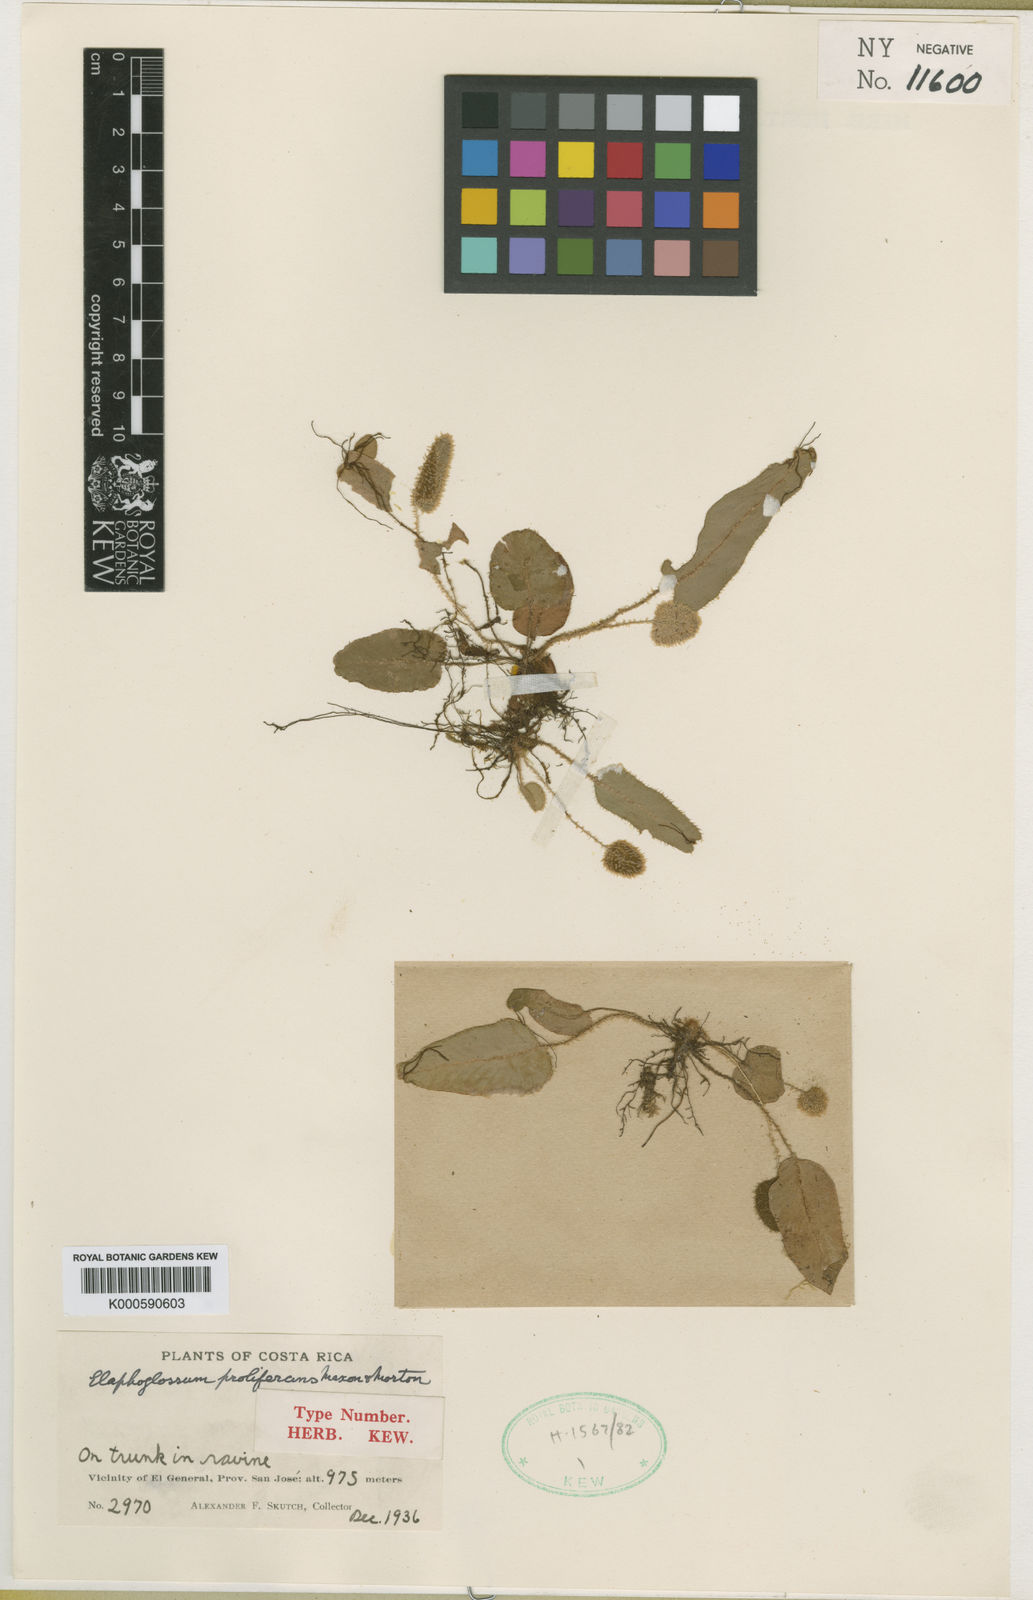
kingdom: Plantae
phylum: Tracheophyta
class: Polypodiopsida
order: Polypodiales
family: Dryopteridaceae
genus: Elaphoglossum
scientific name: Elaphoglossum proliferans
